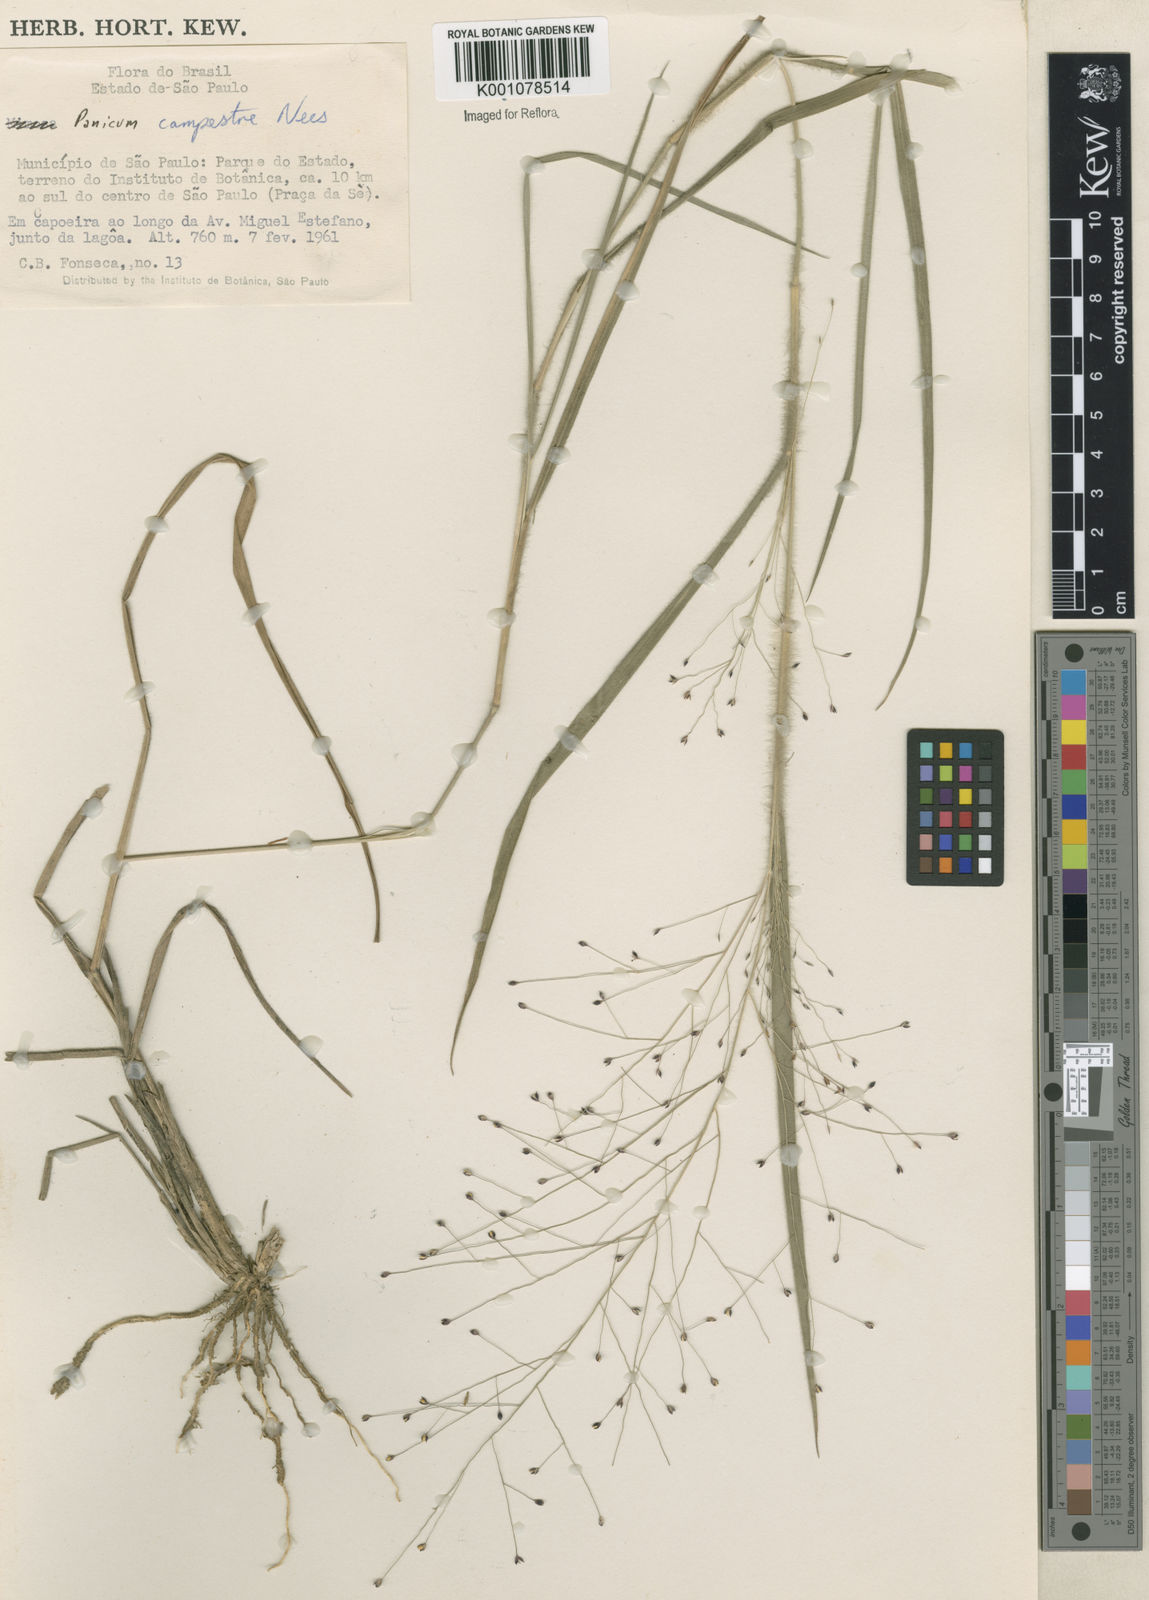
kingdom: Plantae
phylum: Tracheophyta
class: Liliopsida
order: Poales
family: Poaceae
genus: Panicum
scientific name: Panicum campestre
